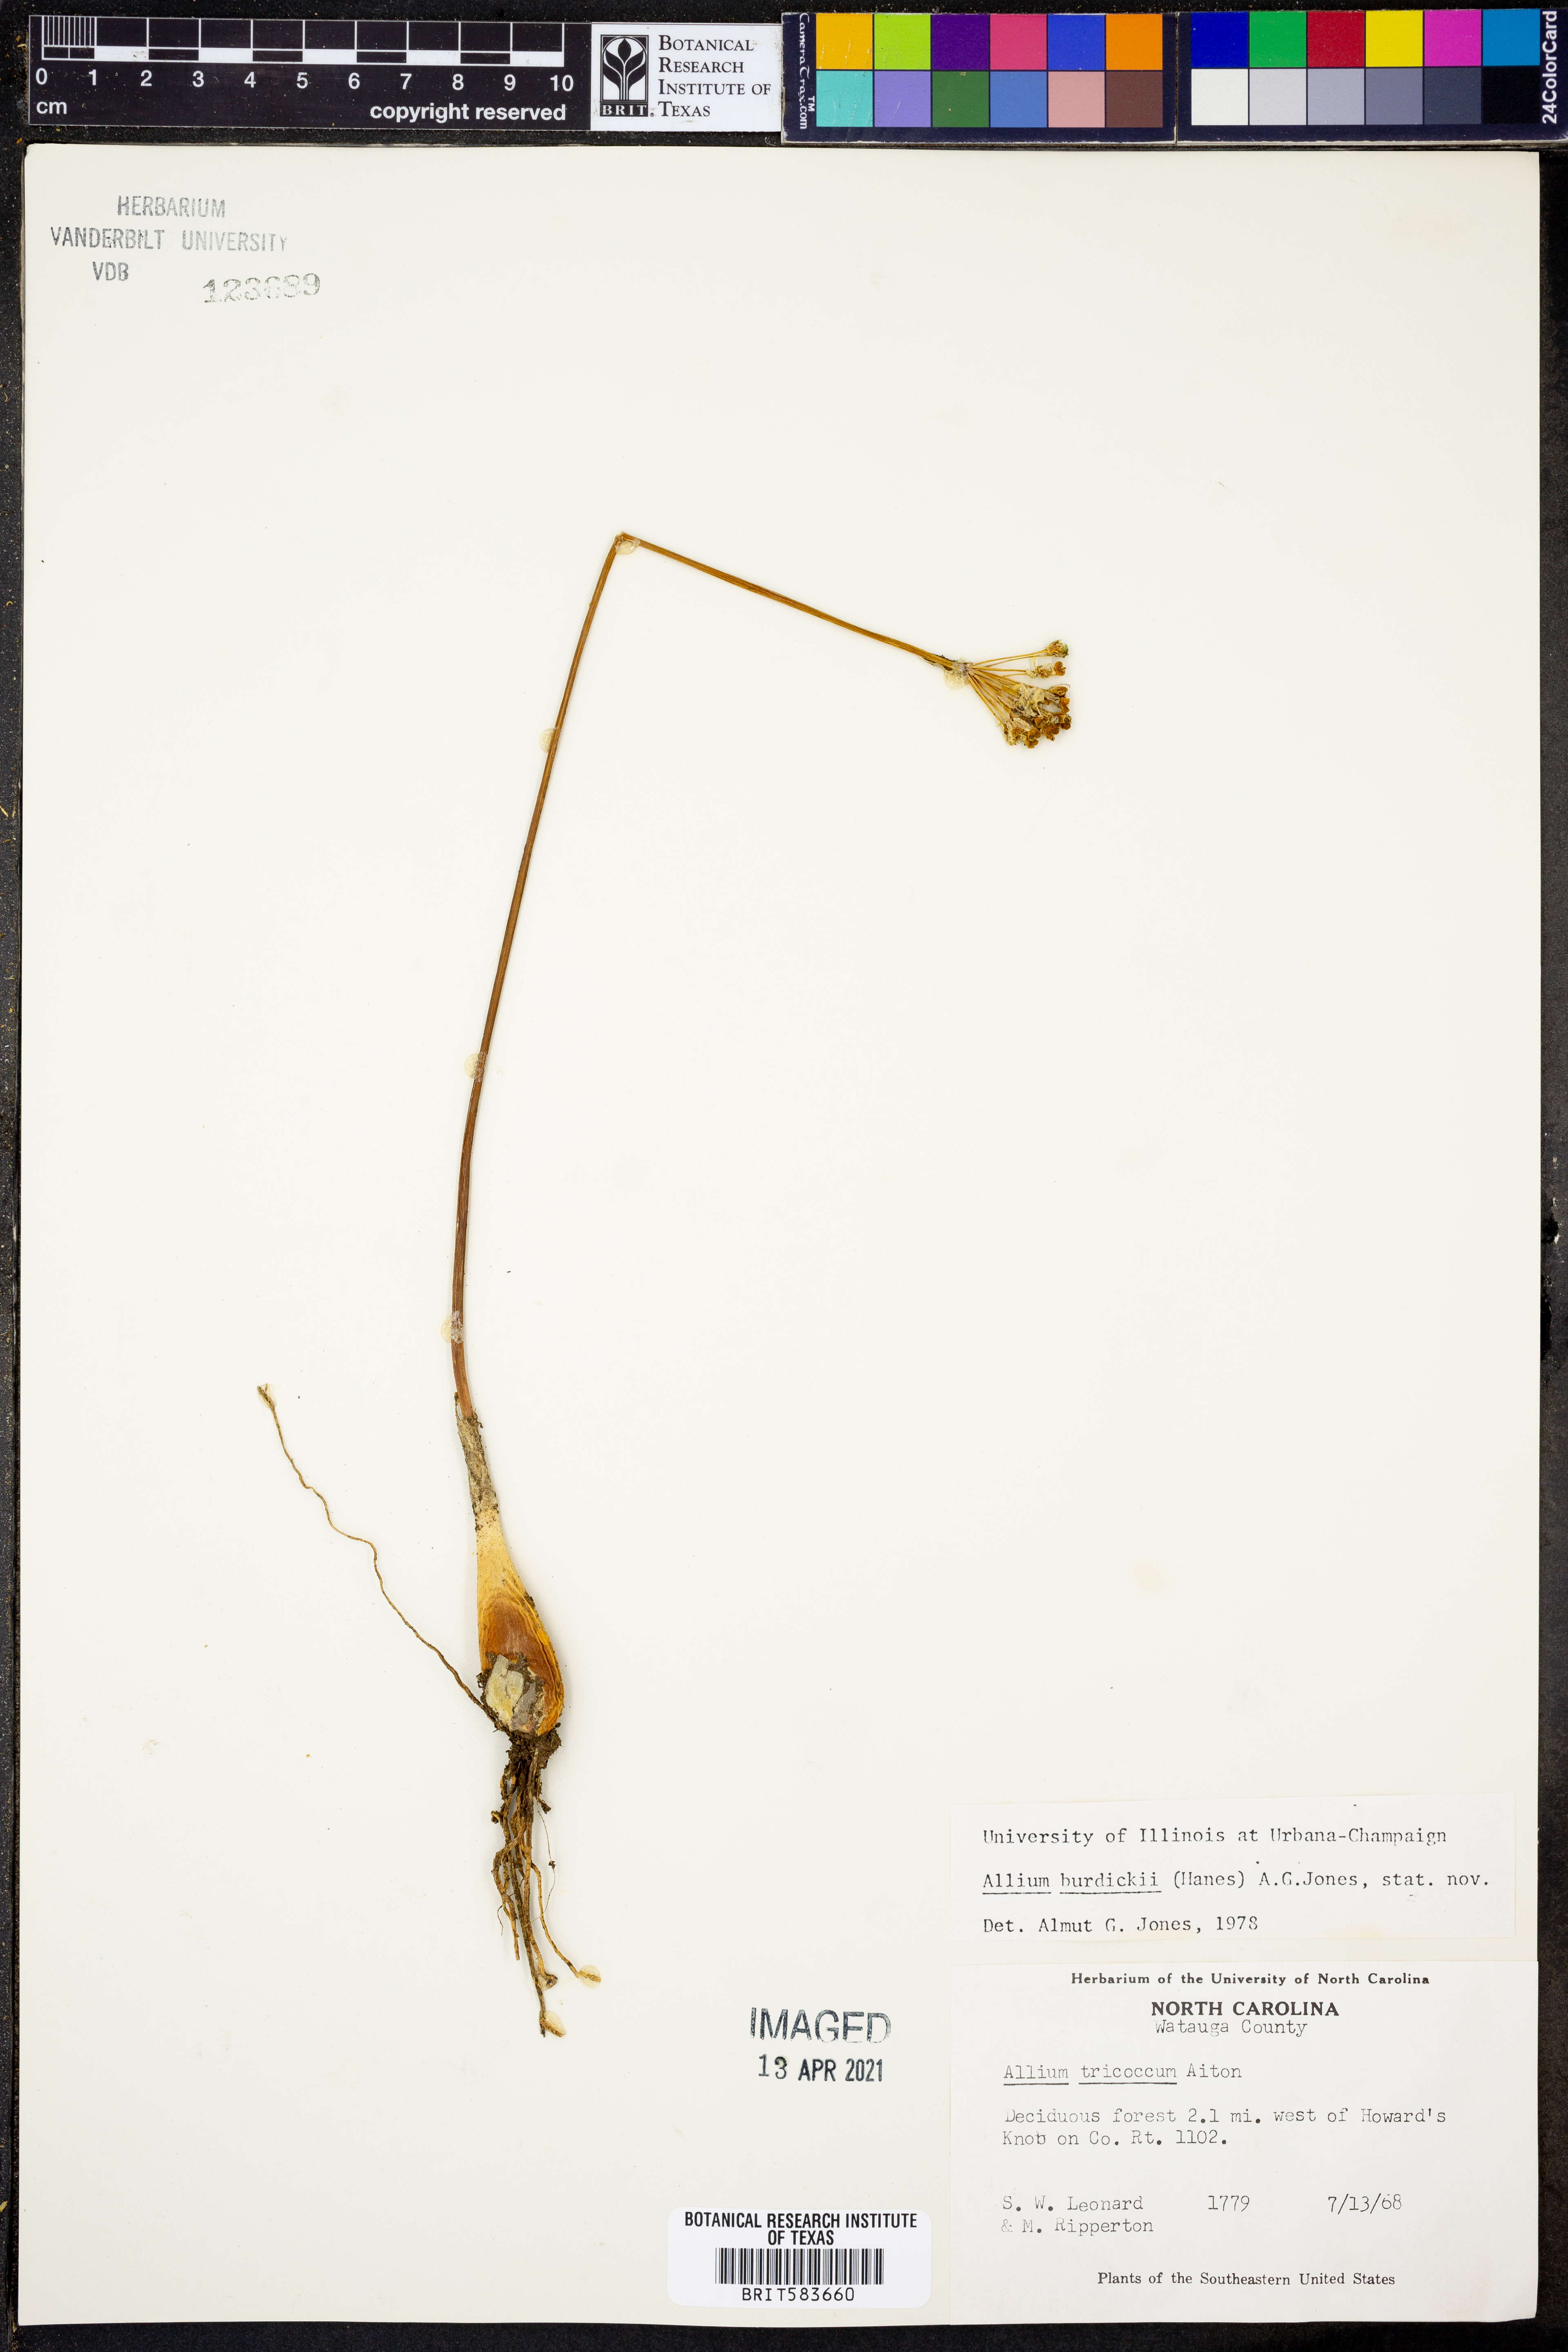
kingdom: Plantae
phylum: Tracheophyta
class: Liliopsida
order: Asparagales
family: Amaryllidaceae
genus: Allium
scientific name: Allium tricoccum
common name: Ramp
